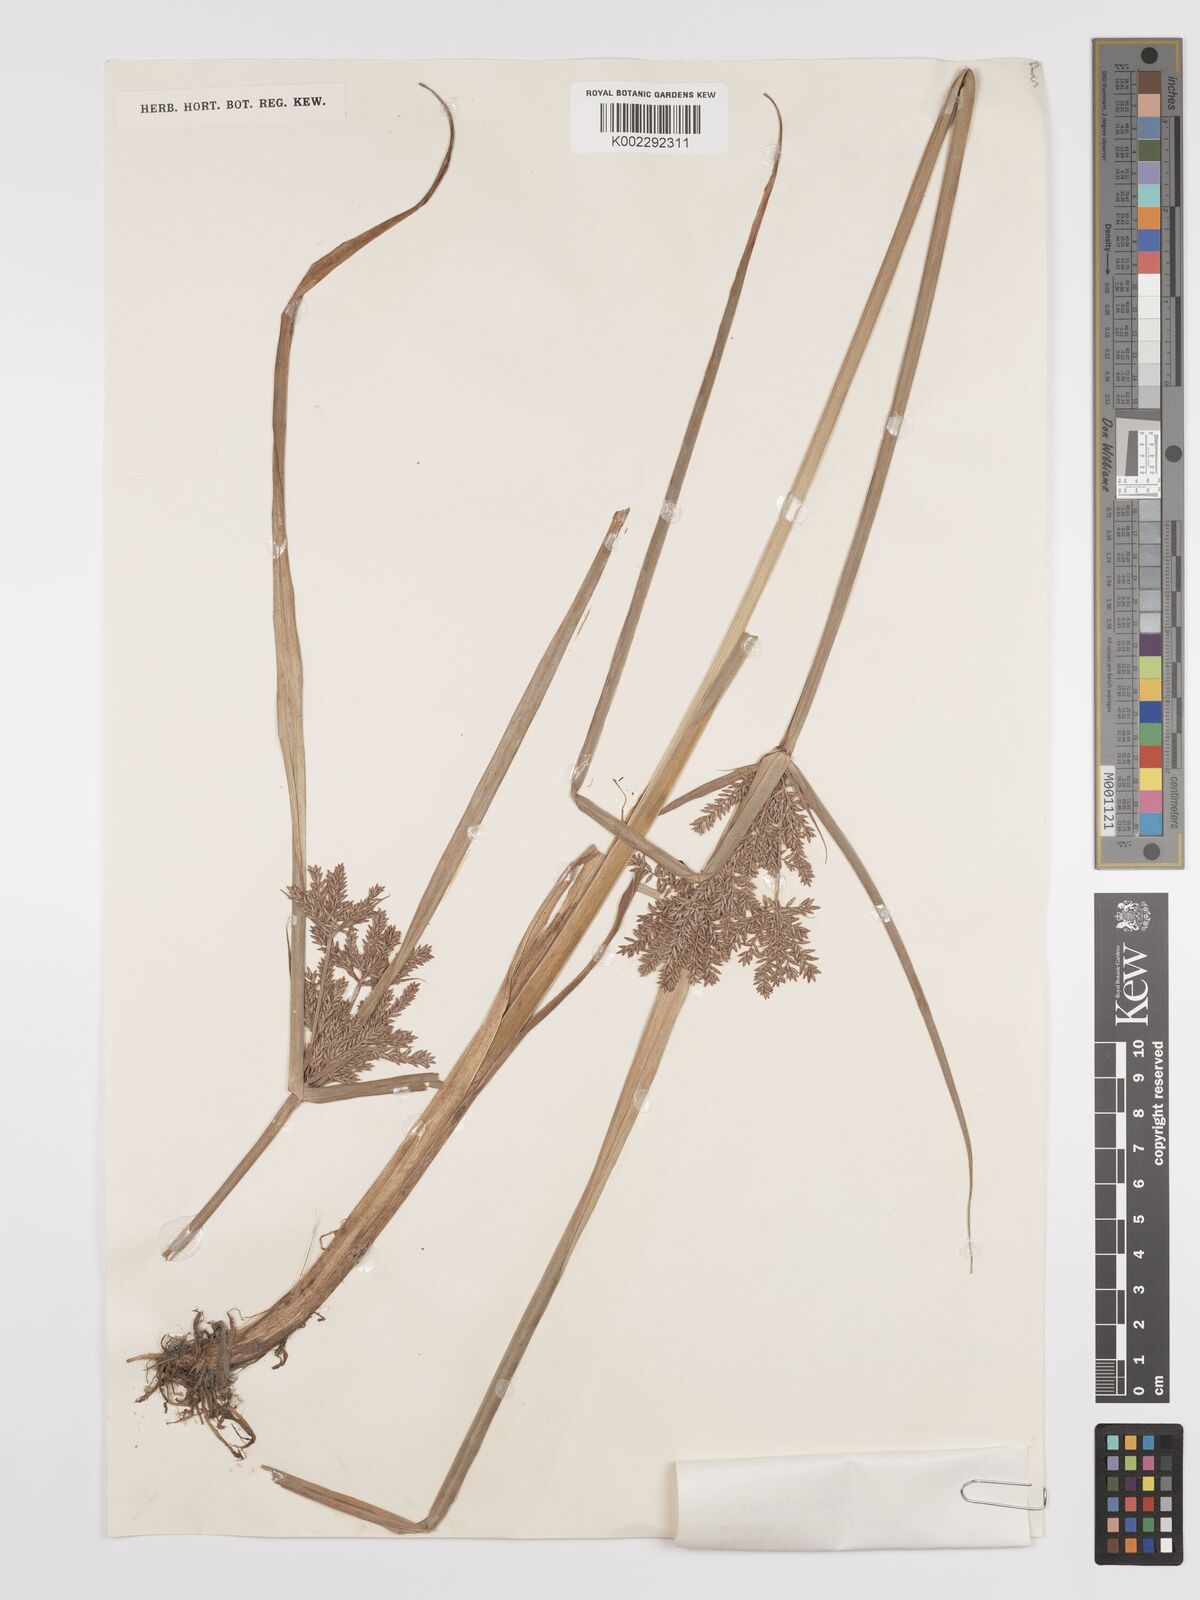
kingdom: Plantae
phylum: Tracheophyta
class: Liliopsida
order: Poales
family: Cyperaceae
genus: Cyperus
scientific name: Cyperus pilosus
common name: Fuzzy flatsedge
